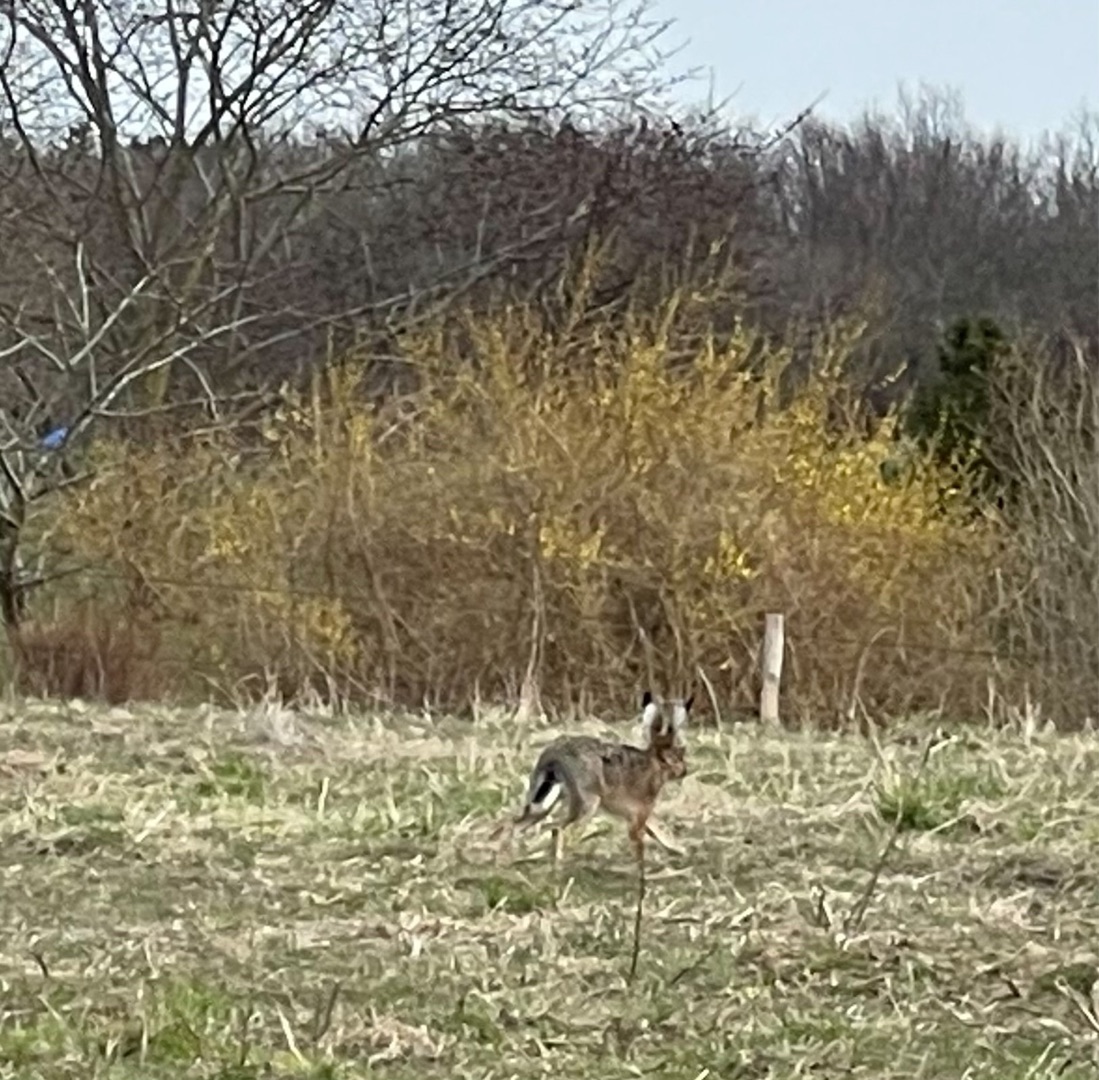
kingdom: Animalia
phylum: Chordata
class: Mammalia
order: Lagomorpha
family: Leporidae
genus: Lepus
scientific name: Lepus europaeus
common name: Hare
